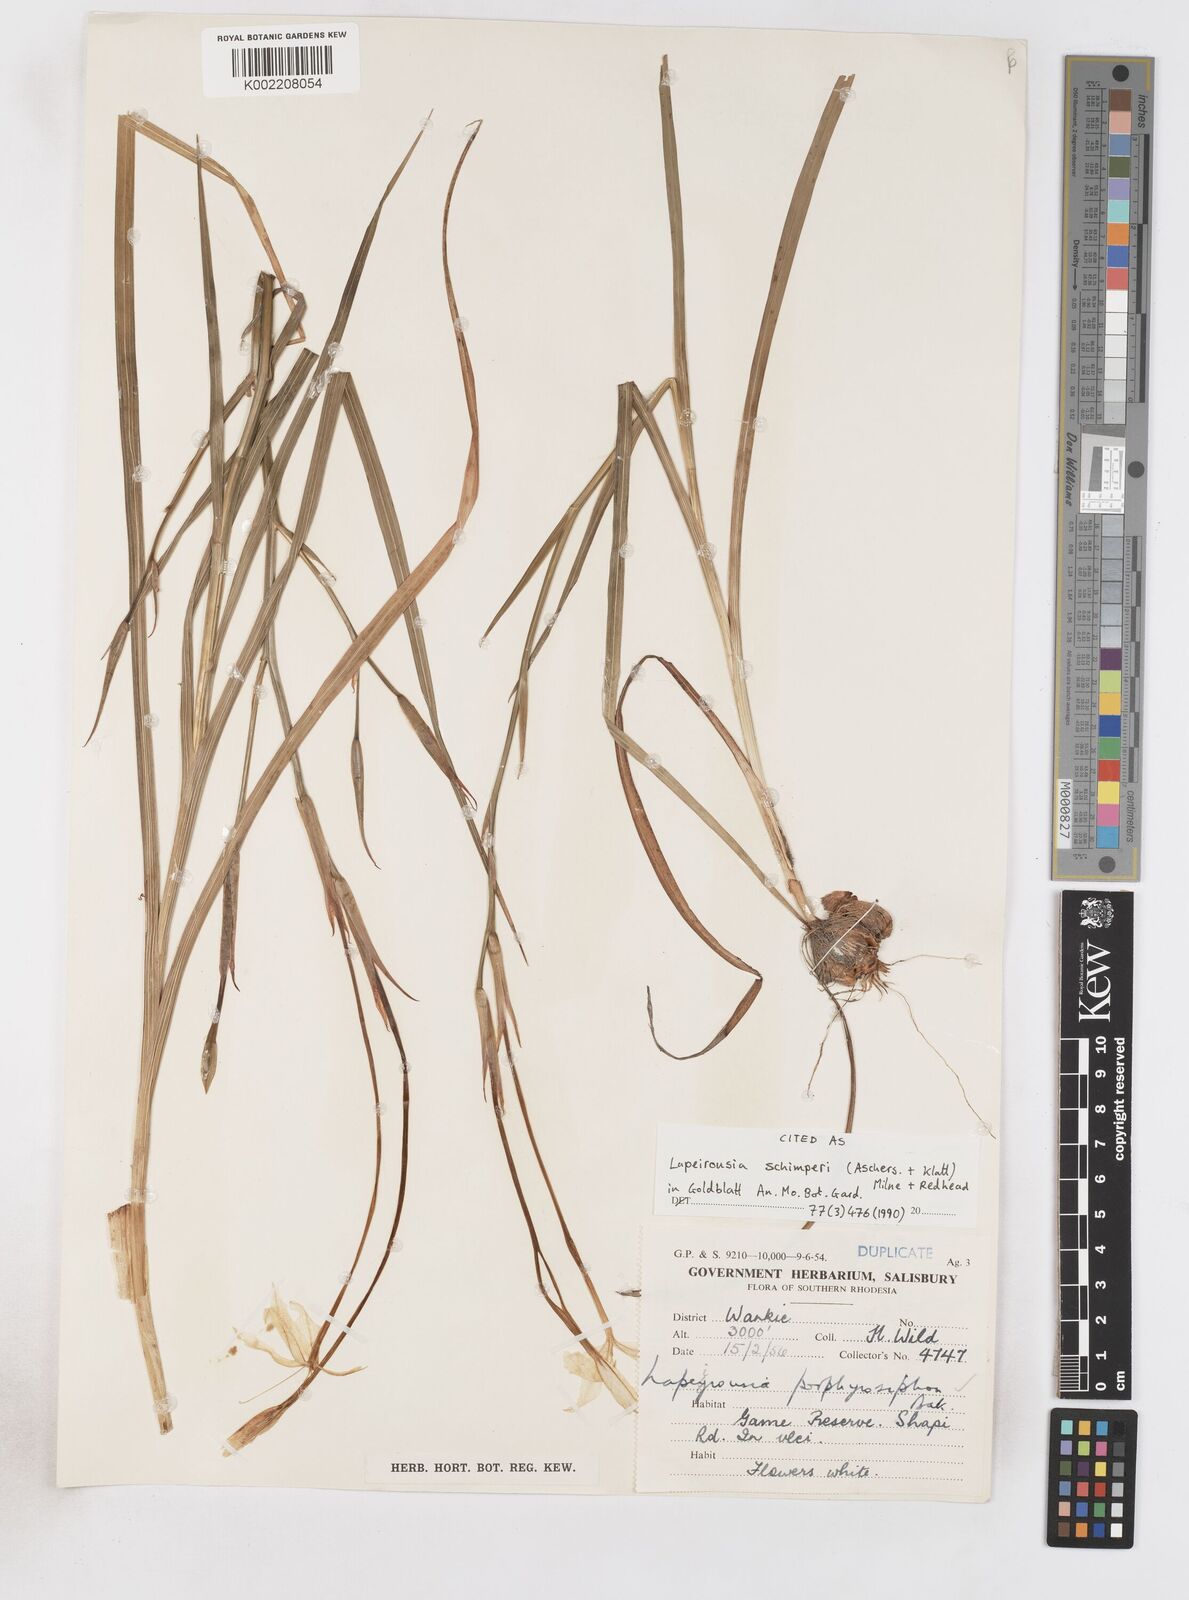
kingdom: Plantae
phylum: Tracheophyta
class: Liliopsida
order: Asparagales
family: Iridaceae
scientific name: Iridaceae
